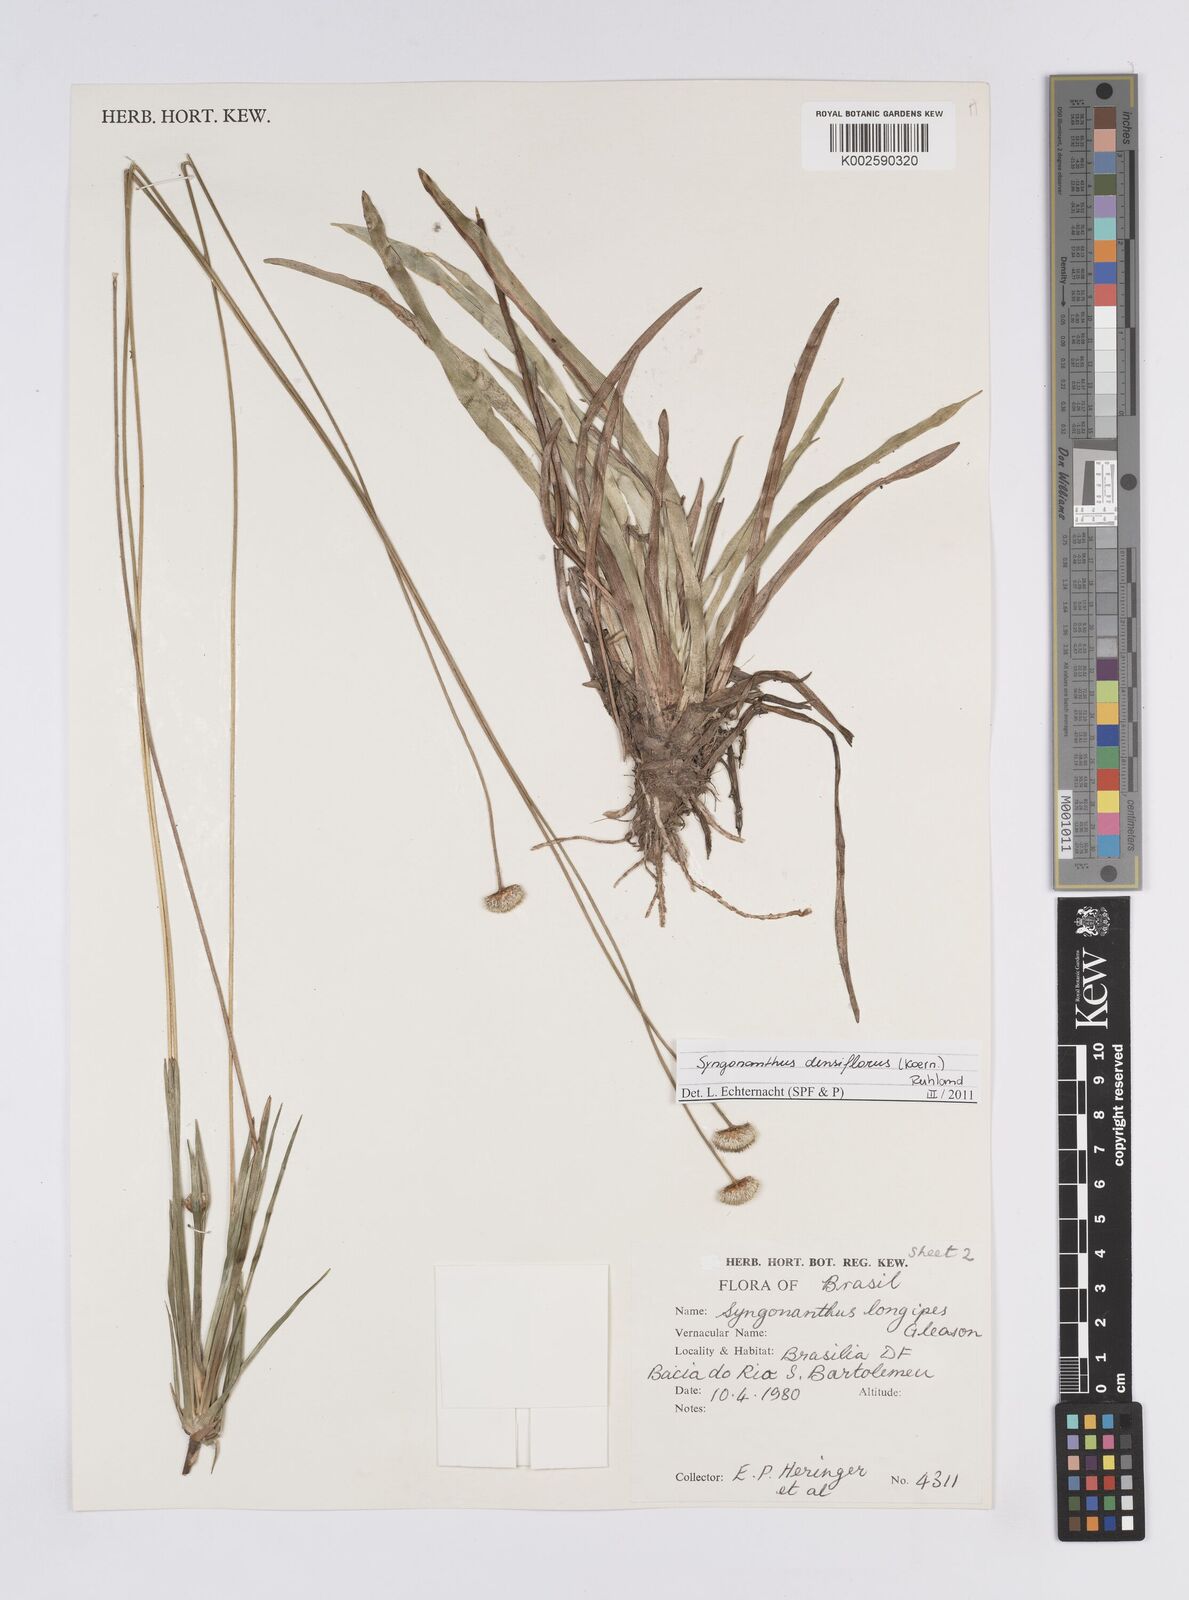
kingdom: Plantae
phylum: Tracheophyta
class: Liliopsida
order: Poales
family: Eriocaulaceae
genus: Syngonanthus
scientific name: Syngonanthus densiflorus
